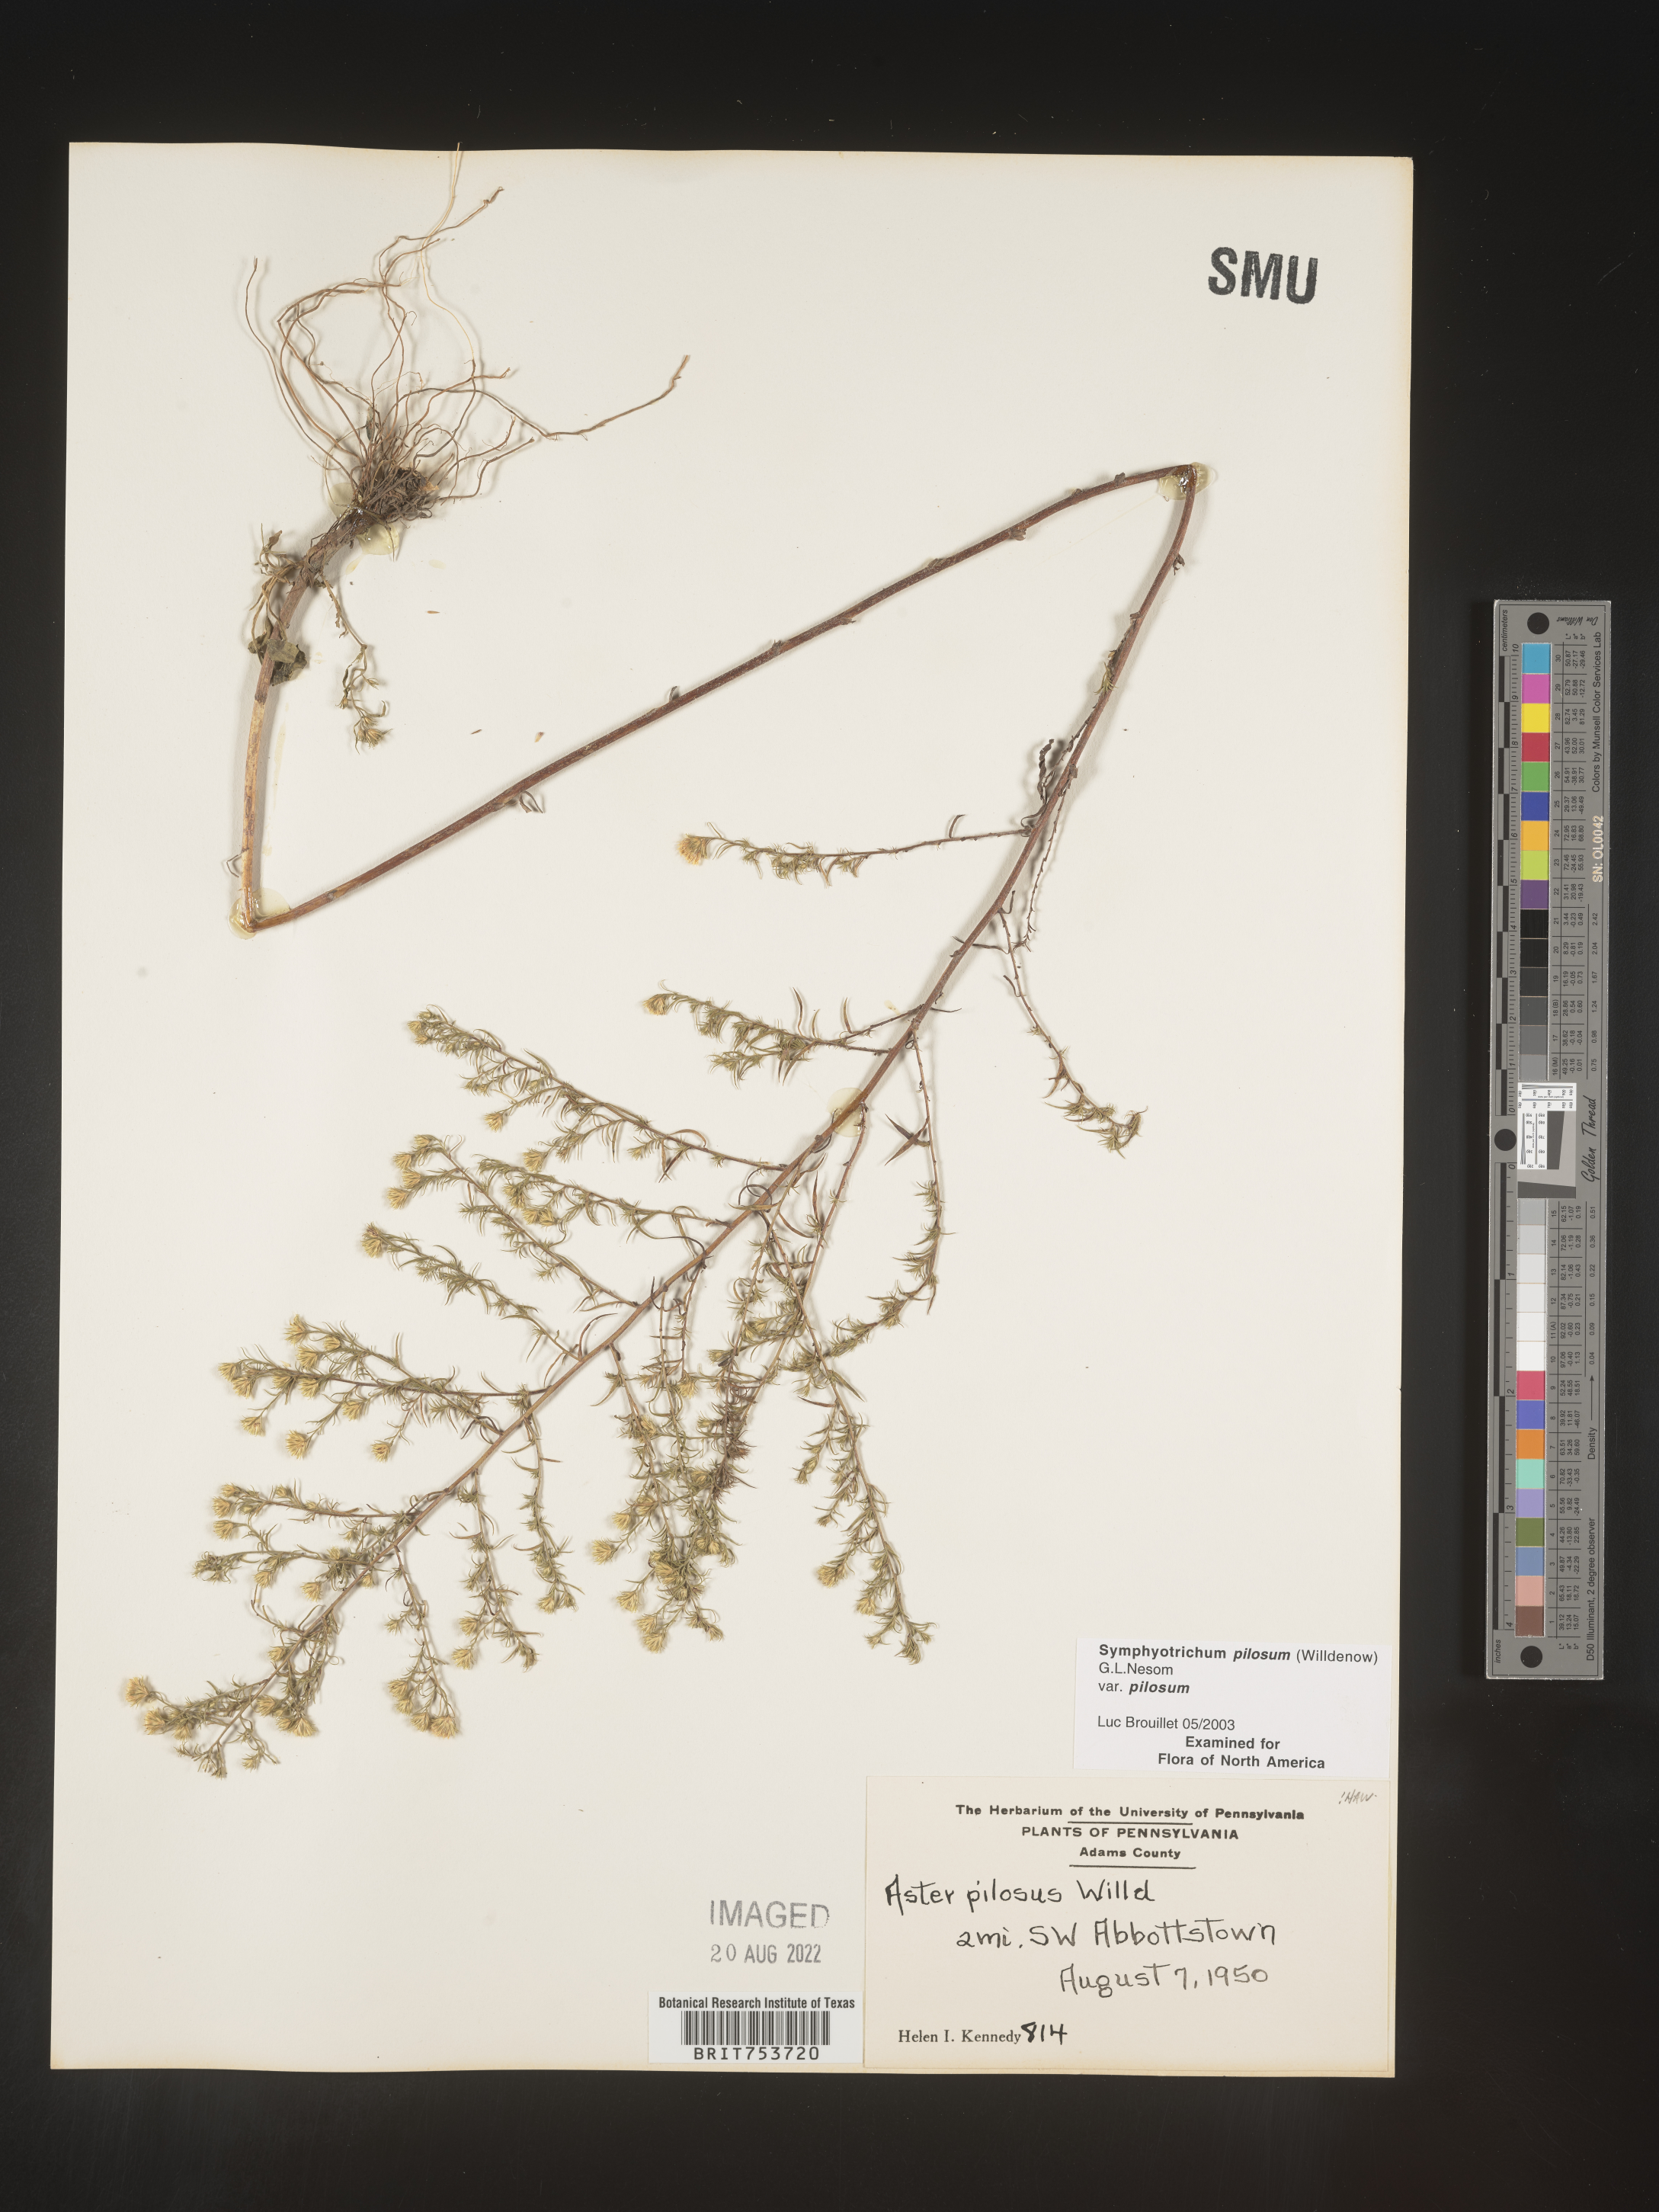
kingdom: Plantae
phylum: Tracheophyta
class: Magnoliopsida
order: Asterales
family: Asteraceae
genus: Symphyotrichum
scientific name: Symphyotrichum pilosum
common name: Awl aster
